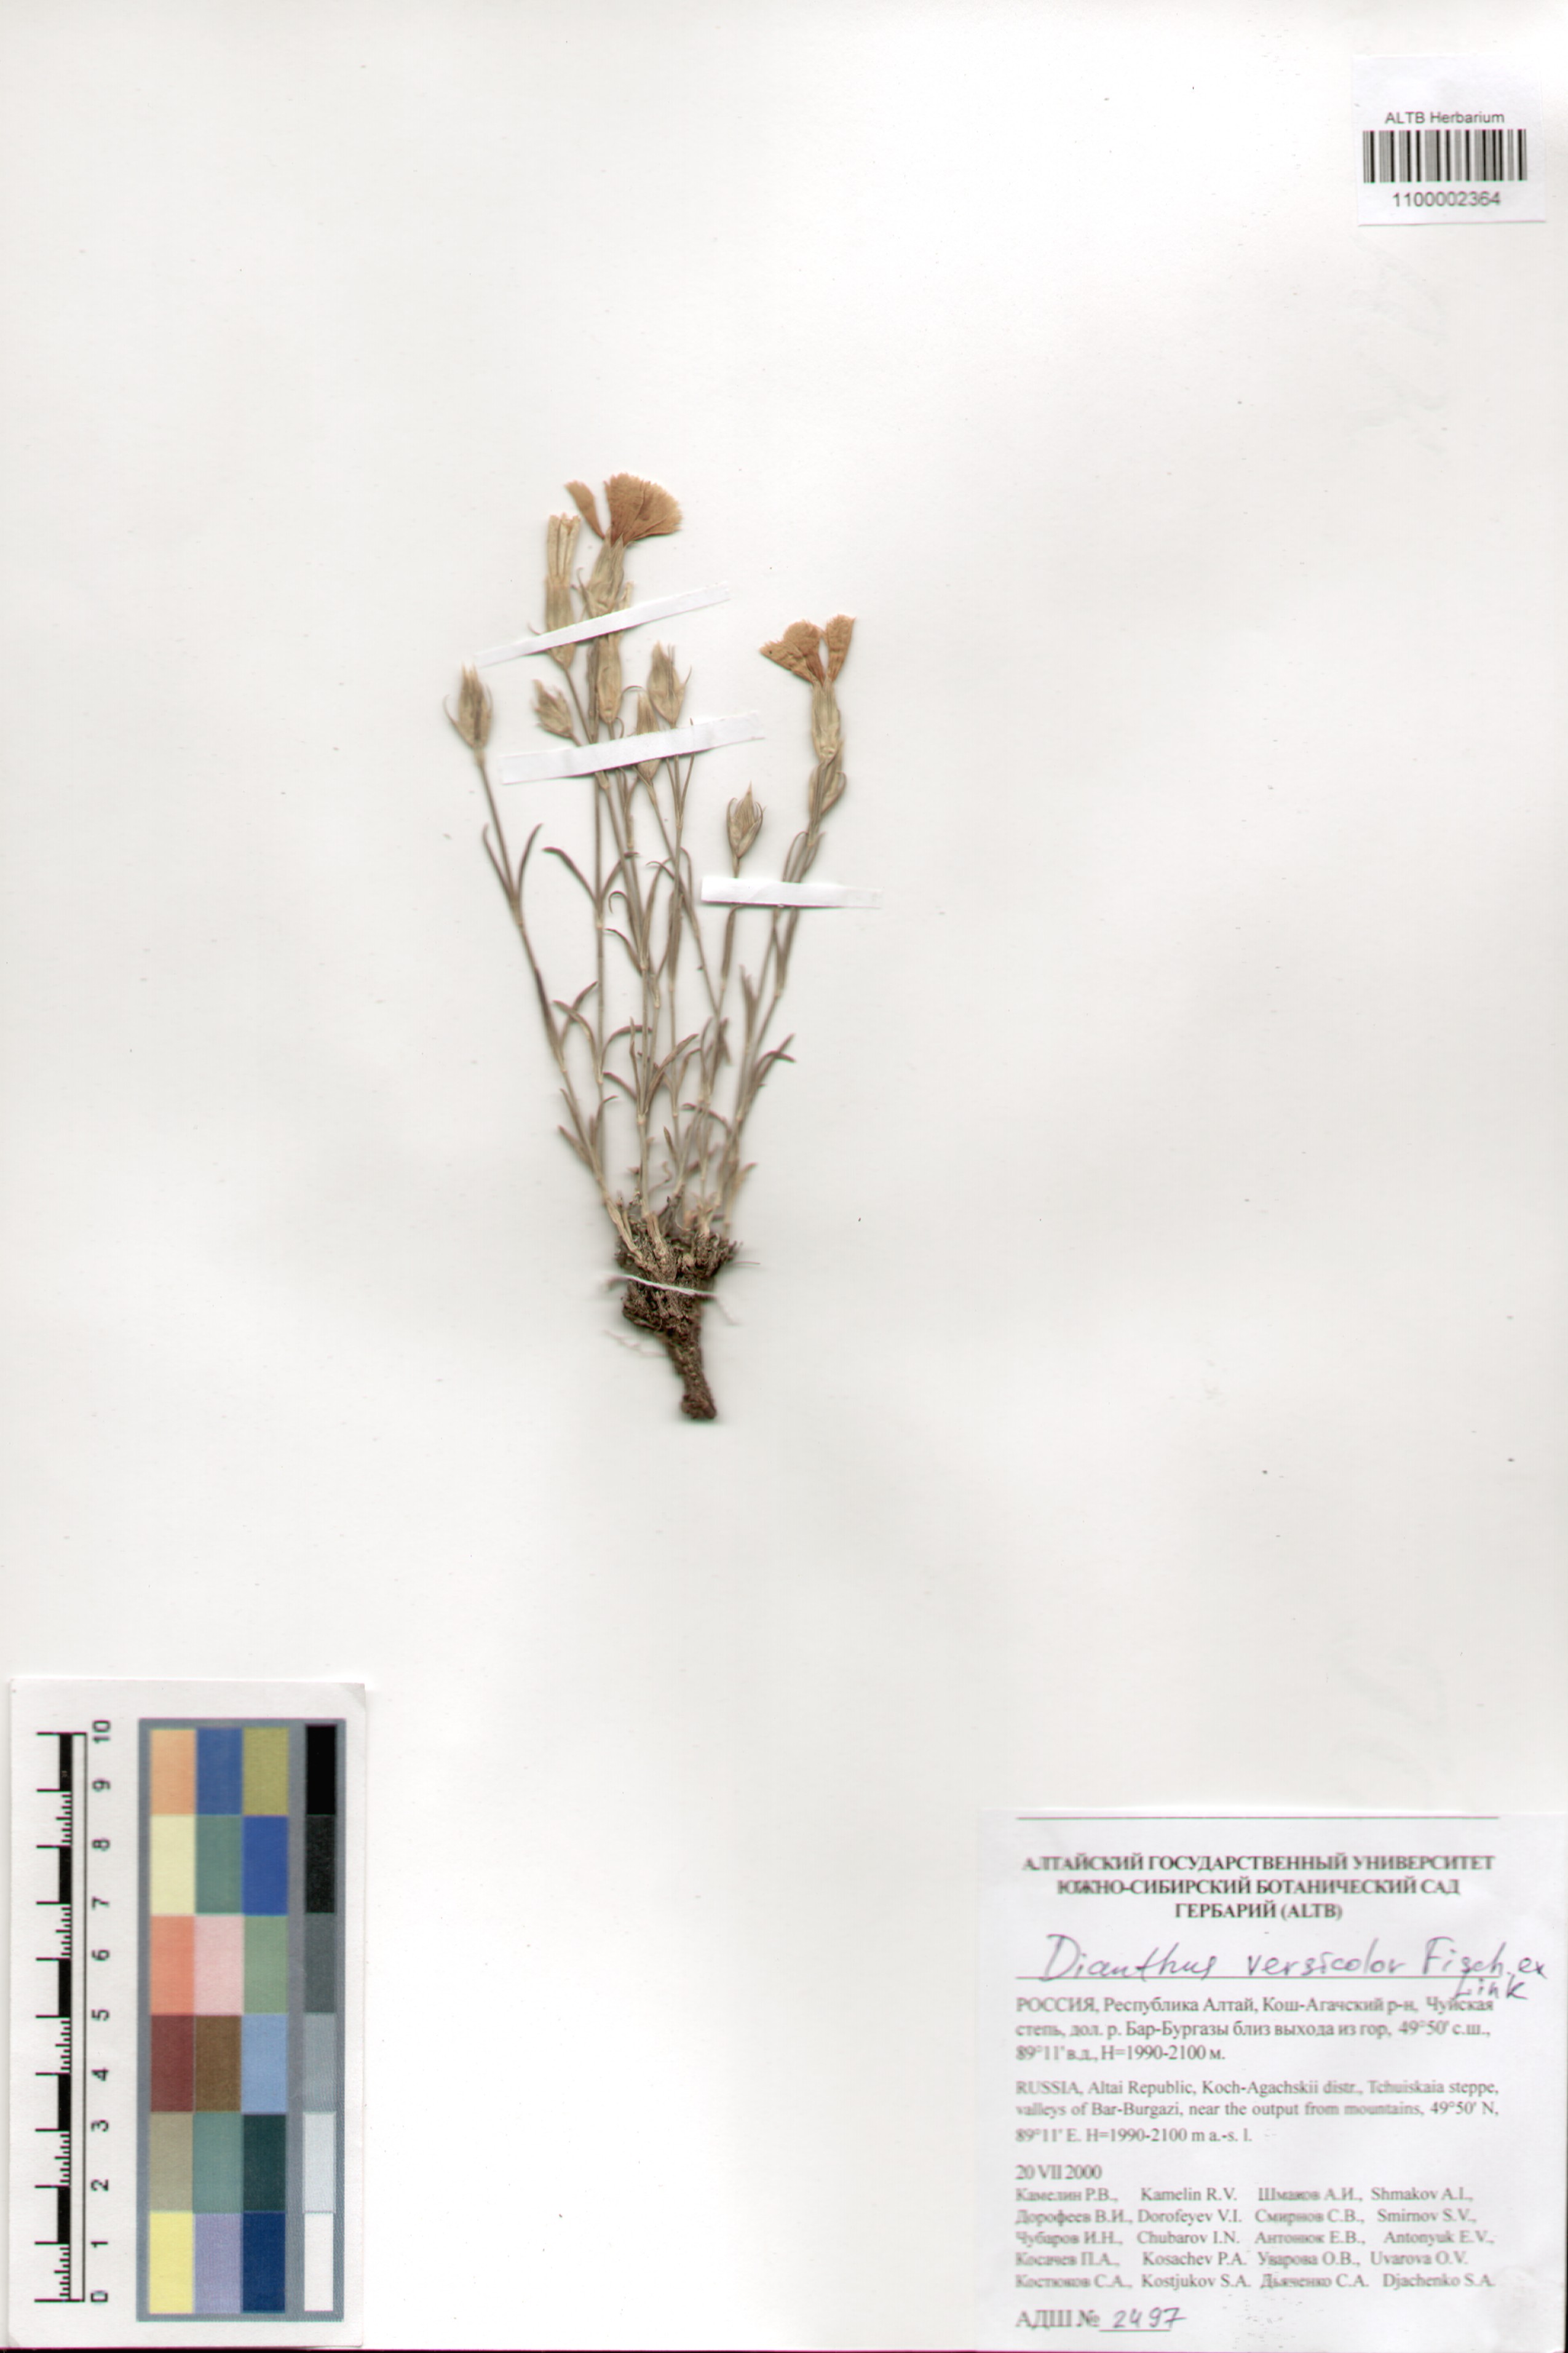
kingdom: Plantae
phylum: Tracheophyta
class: Magnoliopsida
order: Caryophyllales
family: Caryophyllaceae
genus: Dianthus
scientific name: Dianthus chinensis
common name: Rainbow pink
